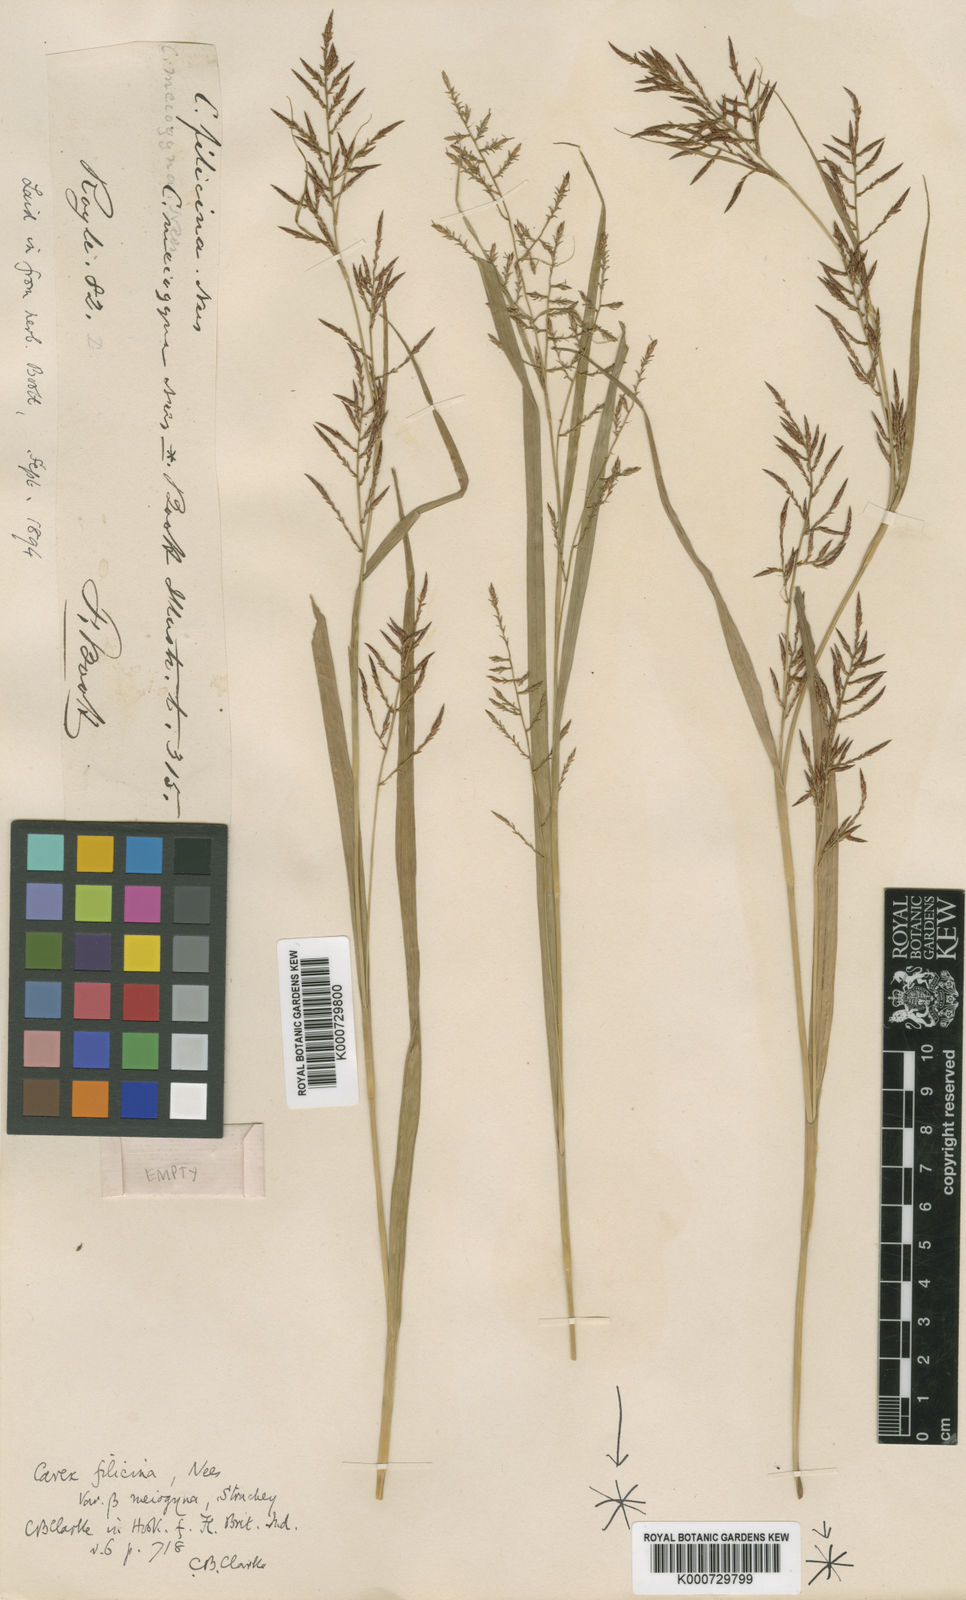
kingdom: Plantae
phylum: Tracheophyta
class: Liliopsida
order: Poales
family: Cyperaceae
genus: Carex
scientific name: Carex filicina
